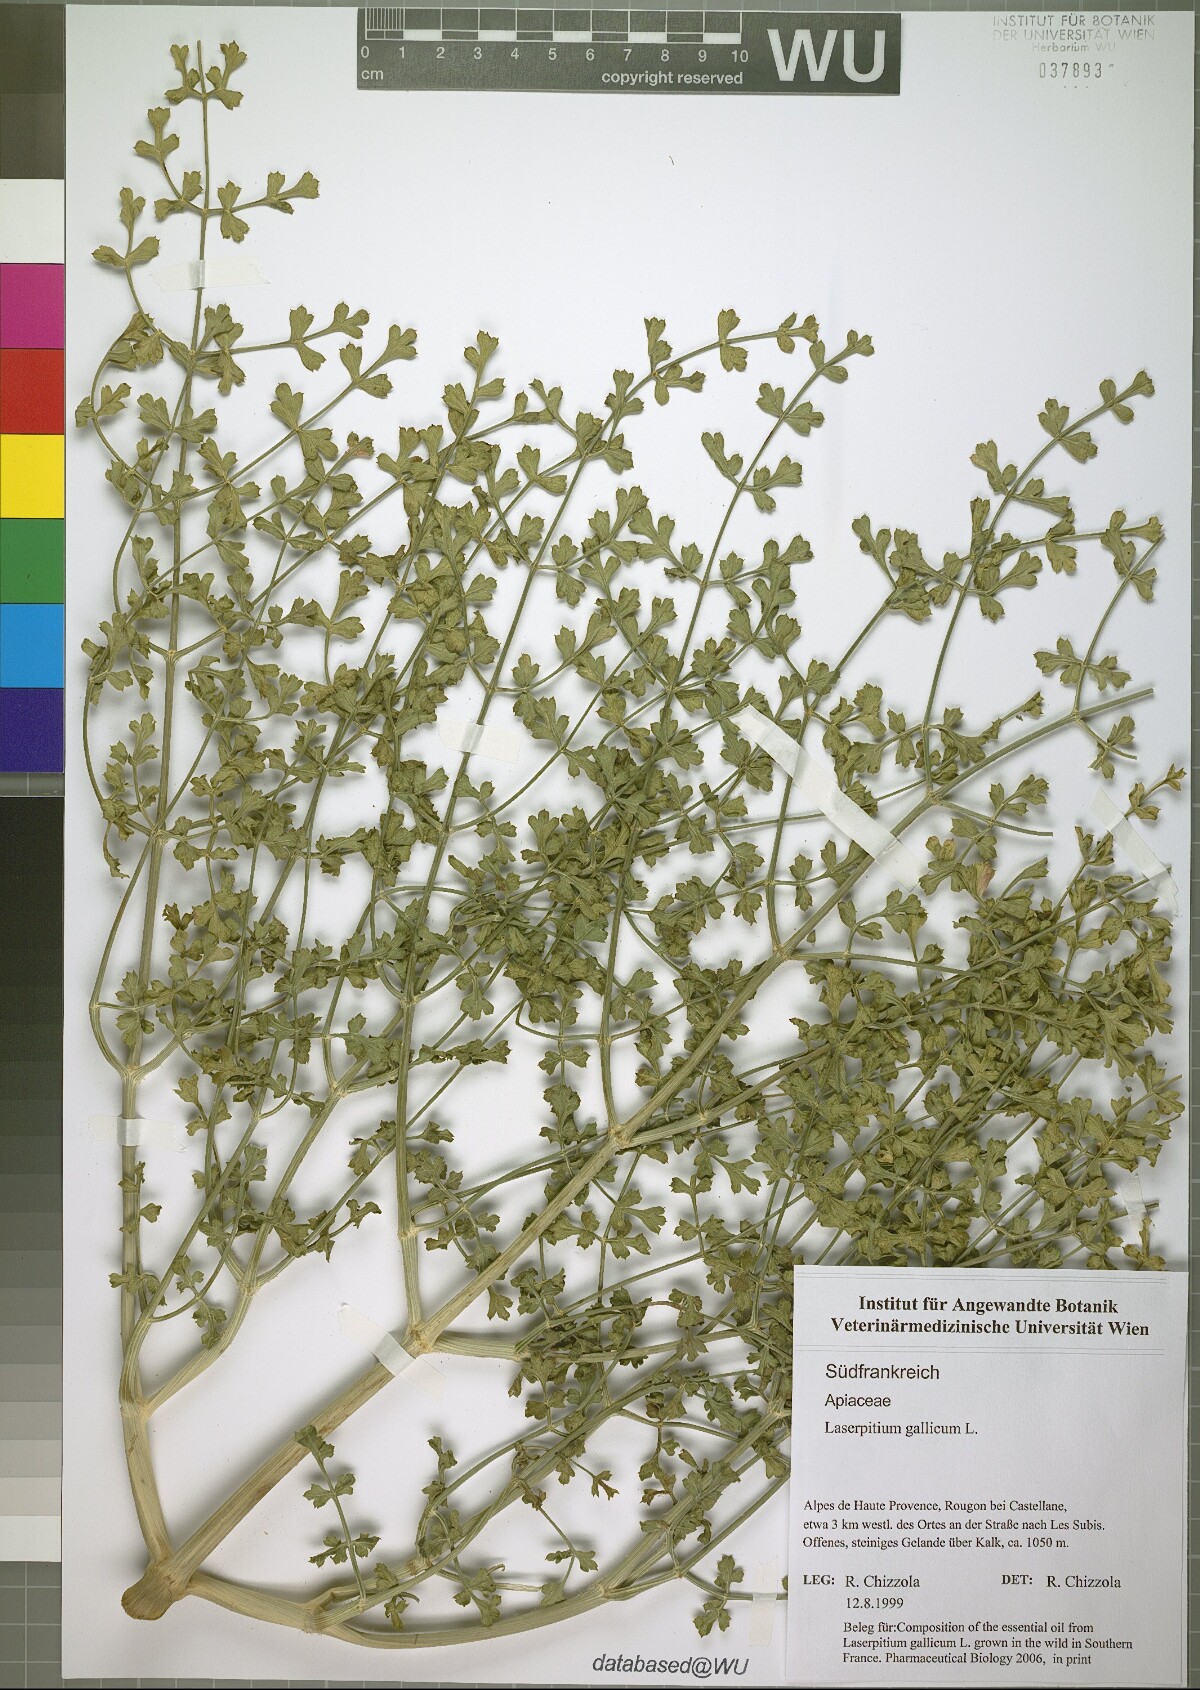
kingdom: Plantae
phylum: Tracheophyta
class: Magnoliopsida
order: Apiales
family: Apiaceae
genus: Laserpitium
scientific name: Laserpitium gallicum
